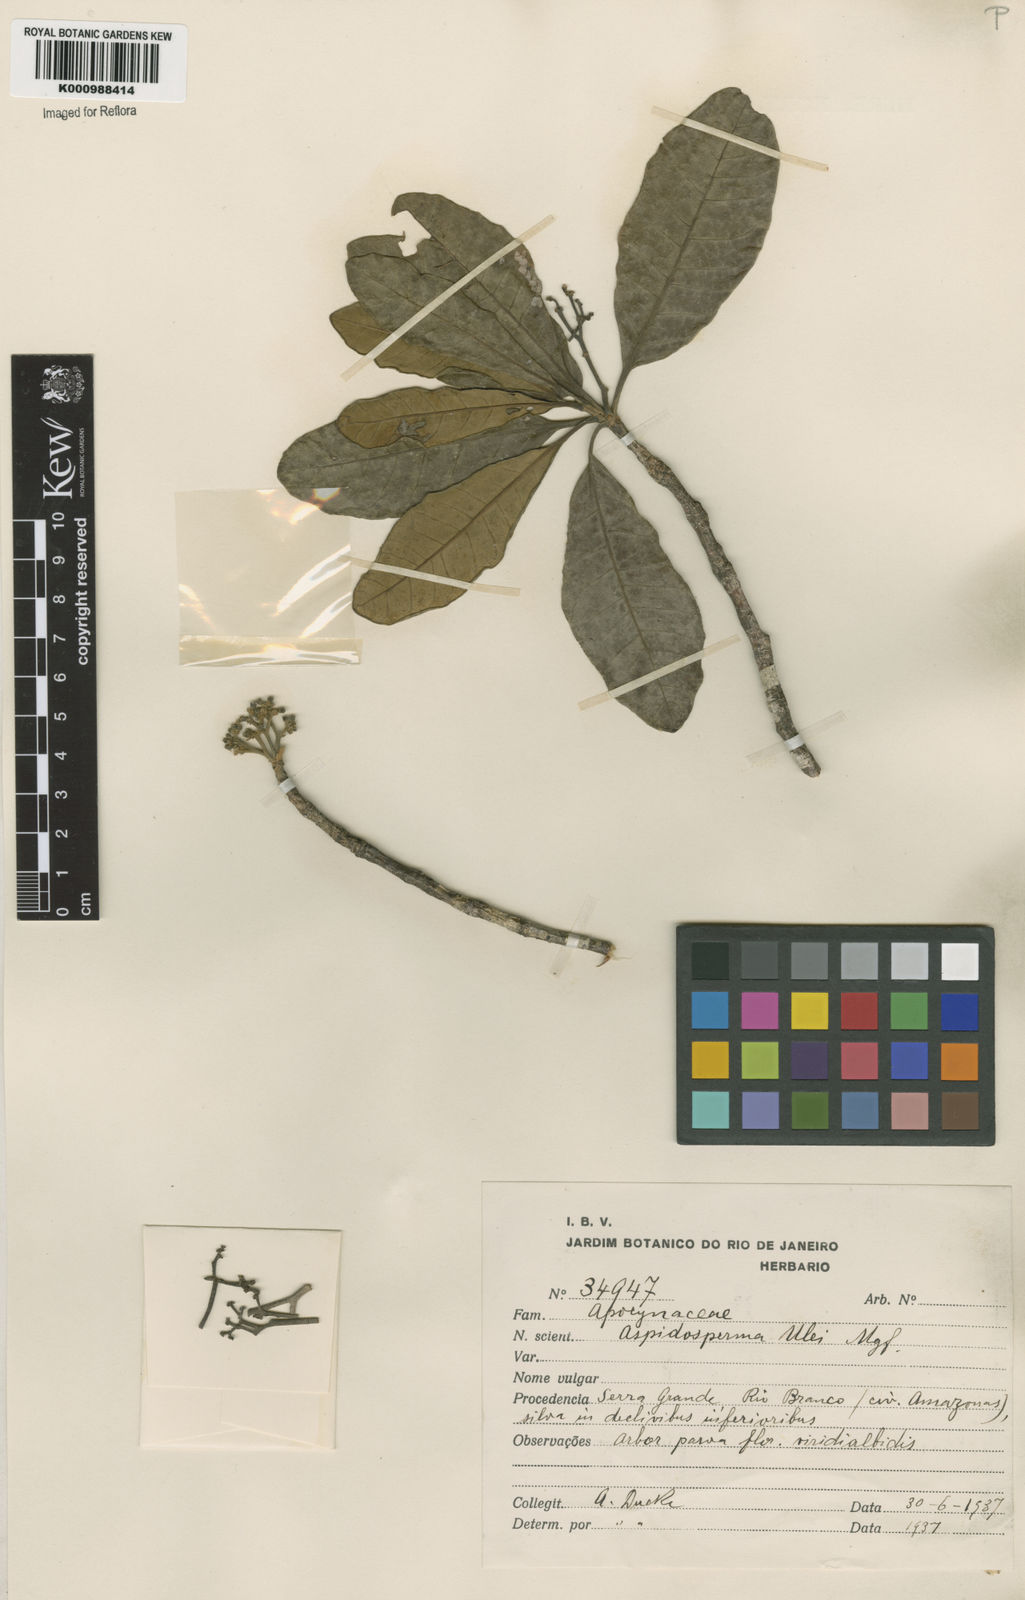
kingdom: Plantae
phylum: Tracheophyta
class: Magnoliopsida
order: Gentianales
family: Apocynaceae
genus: Aspidosperma
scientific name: Aspidosperma ulei
